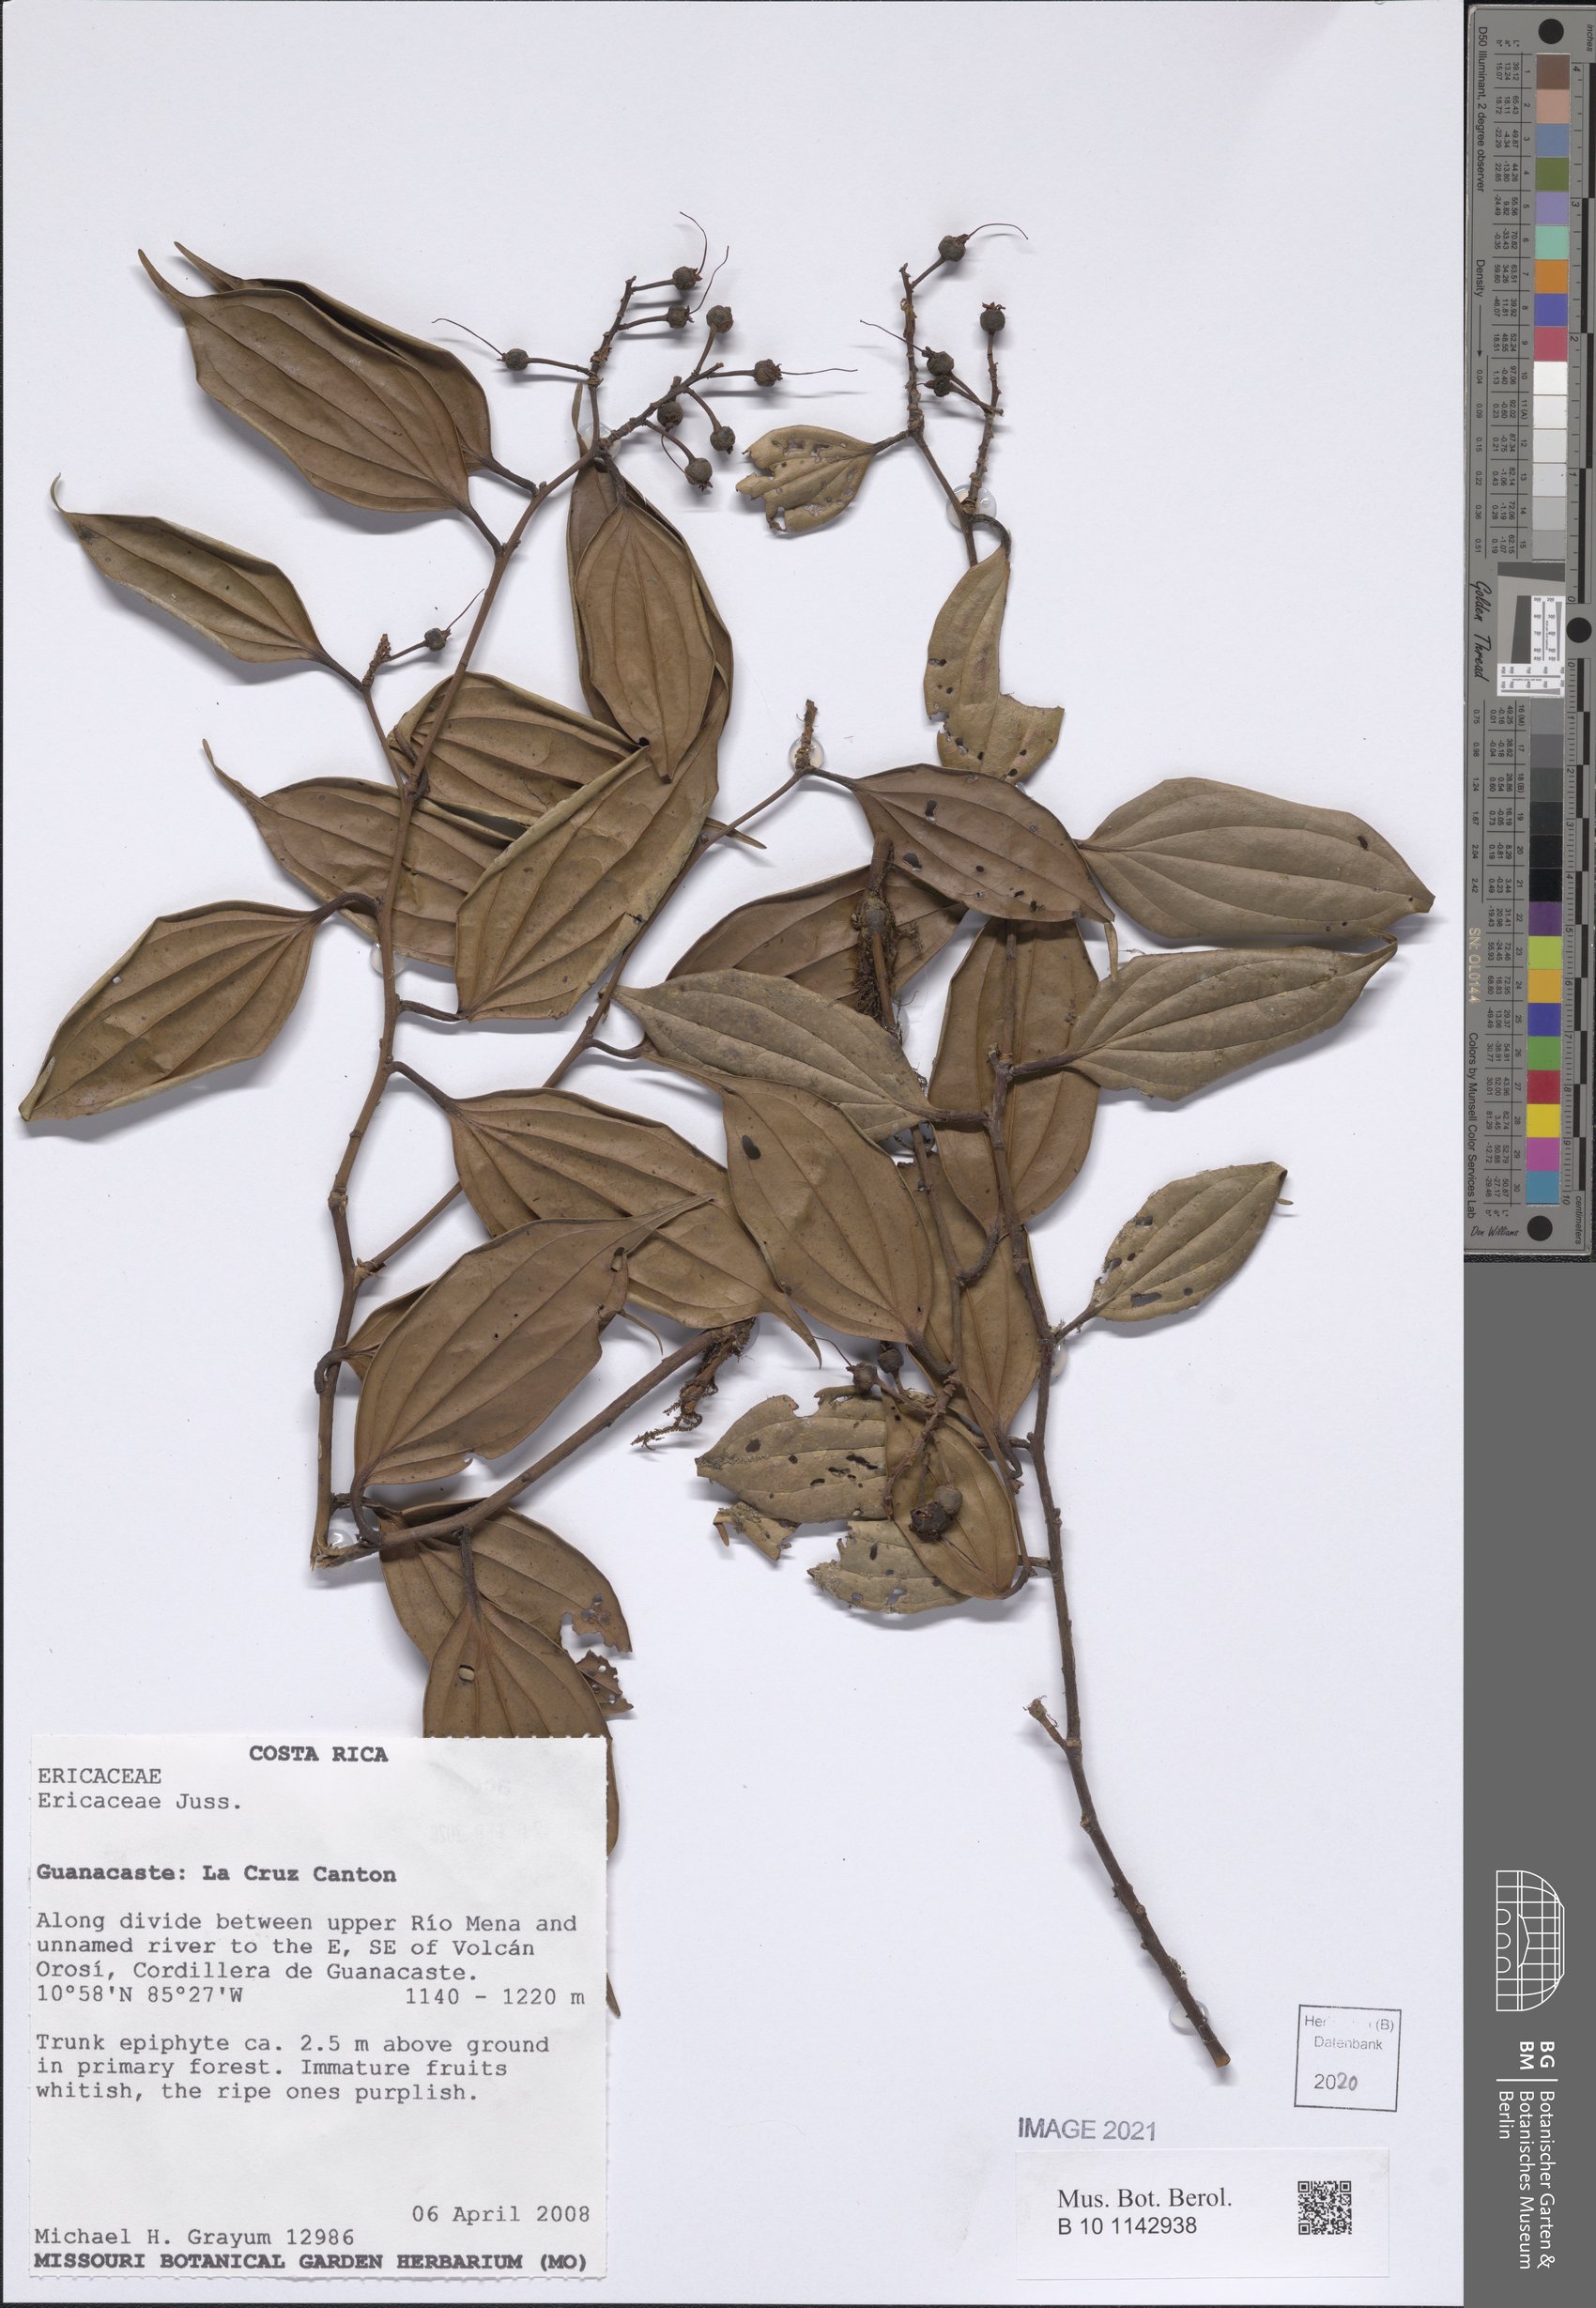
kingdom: Plantae
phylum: Tracheophyta
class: Magnoliopsida
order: Ericales
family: Ericaceae
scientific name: Ericaceae
